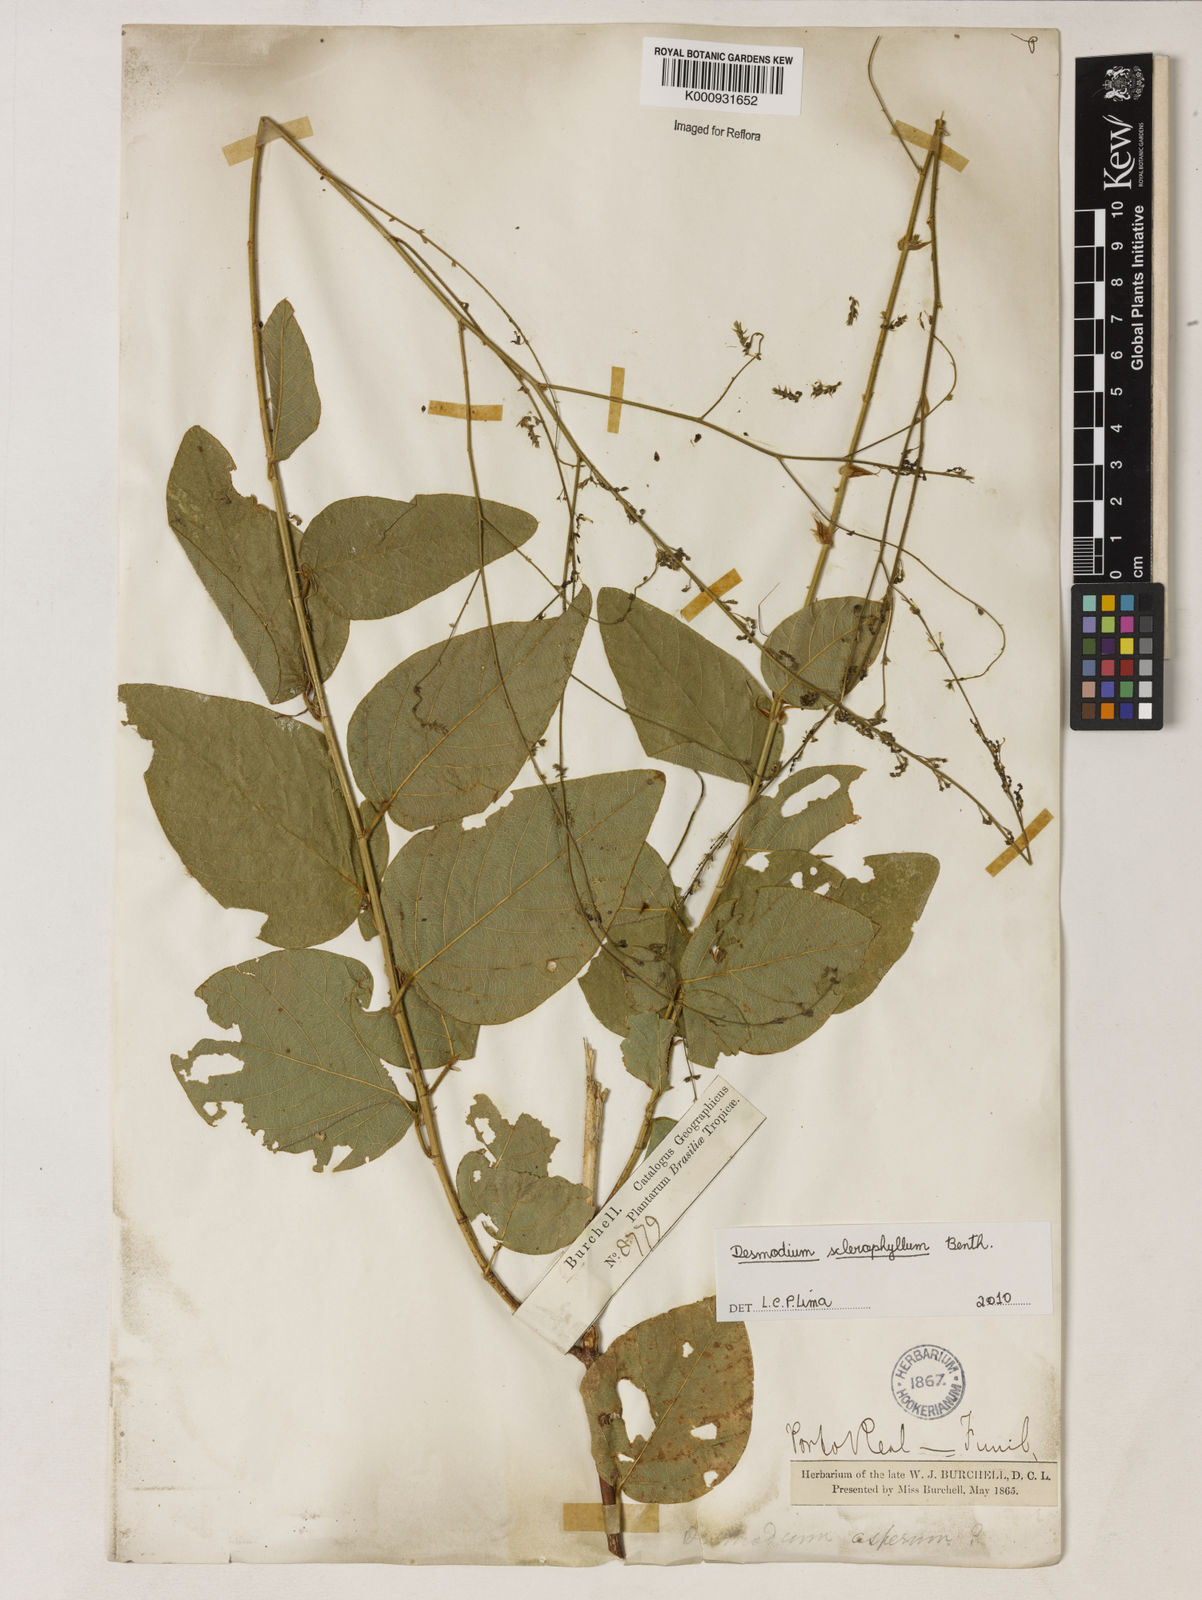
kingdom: Plantae
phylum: Tracheophyta
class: Magnoliopsida
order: Fabales
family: Fabaceae
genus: Desmodium
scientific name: Desmodium sclerophyllum
